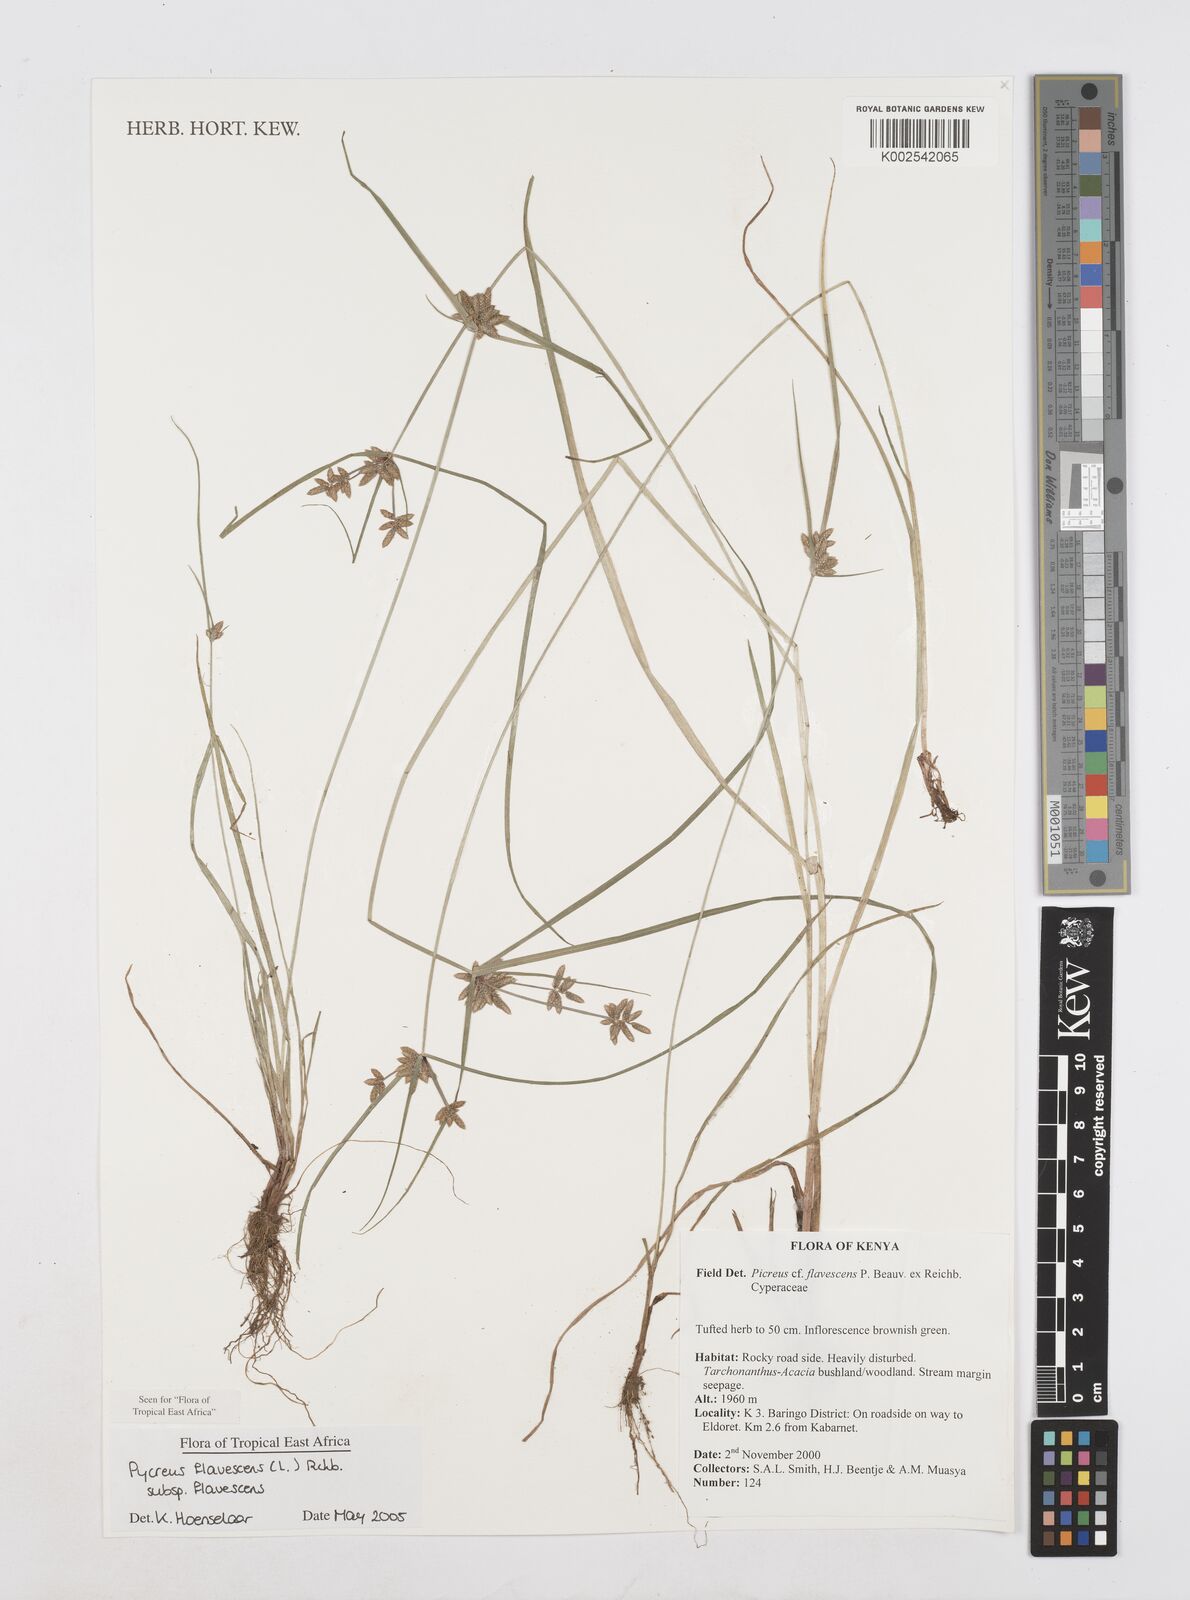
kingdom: Plantae
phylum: Tracheophyta
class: Liliopsida
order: Poales
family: Cyperaceae
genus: Cyperus
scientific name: Cyperus flavescens
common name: Yellow galingale
